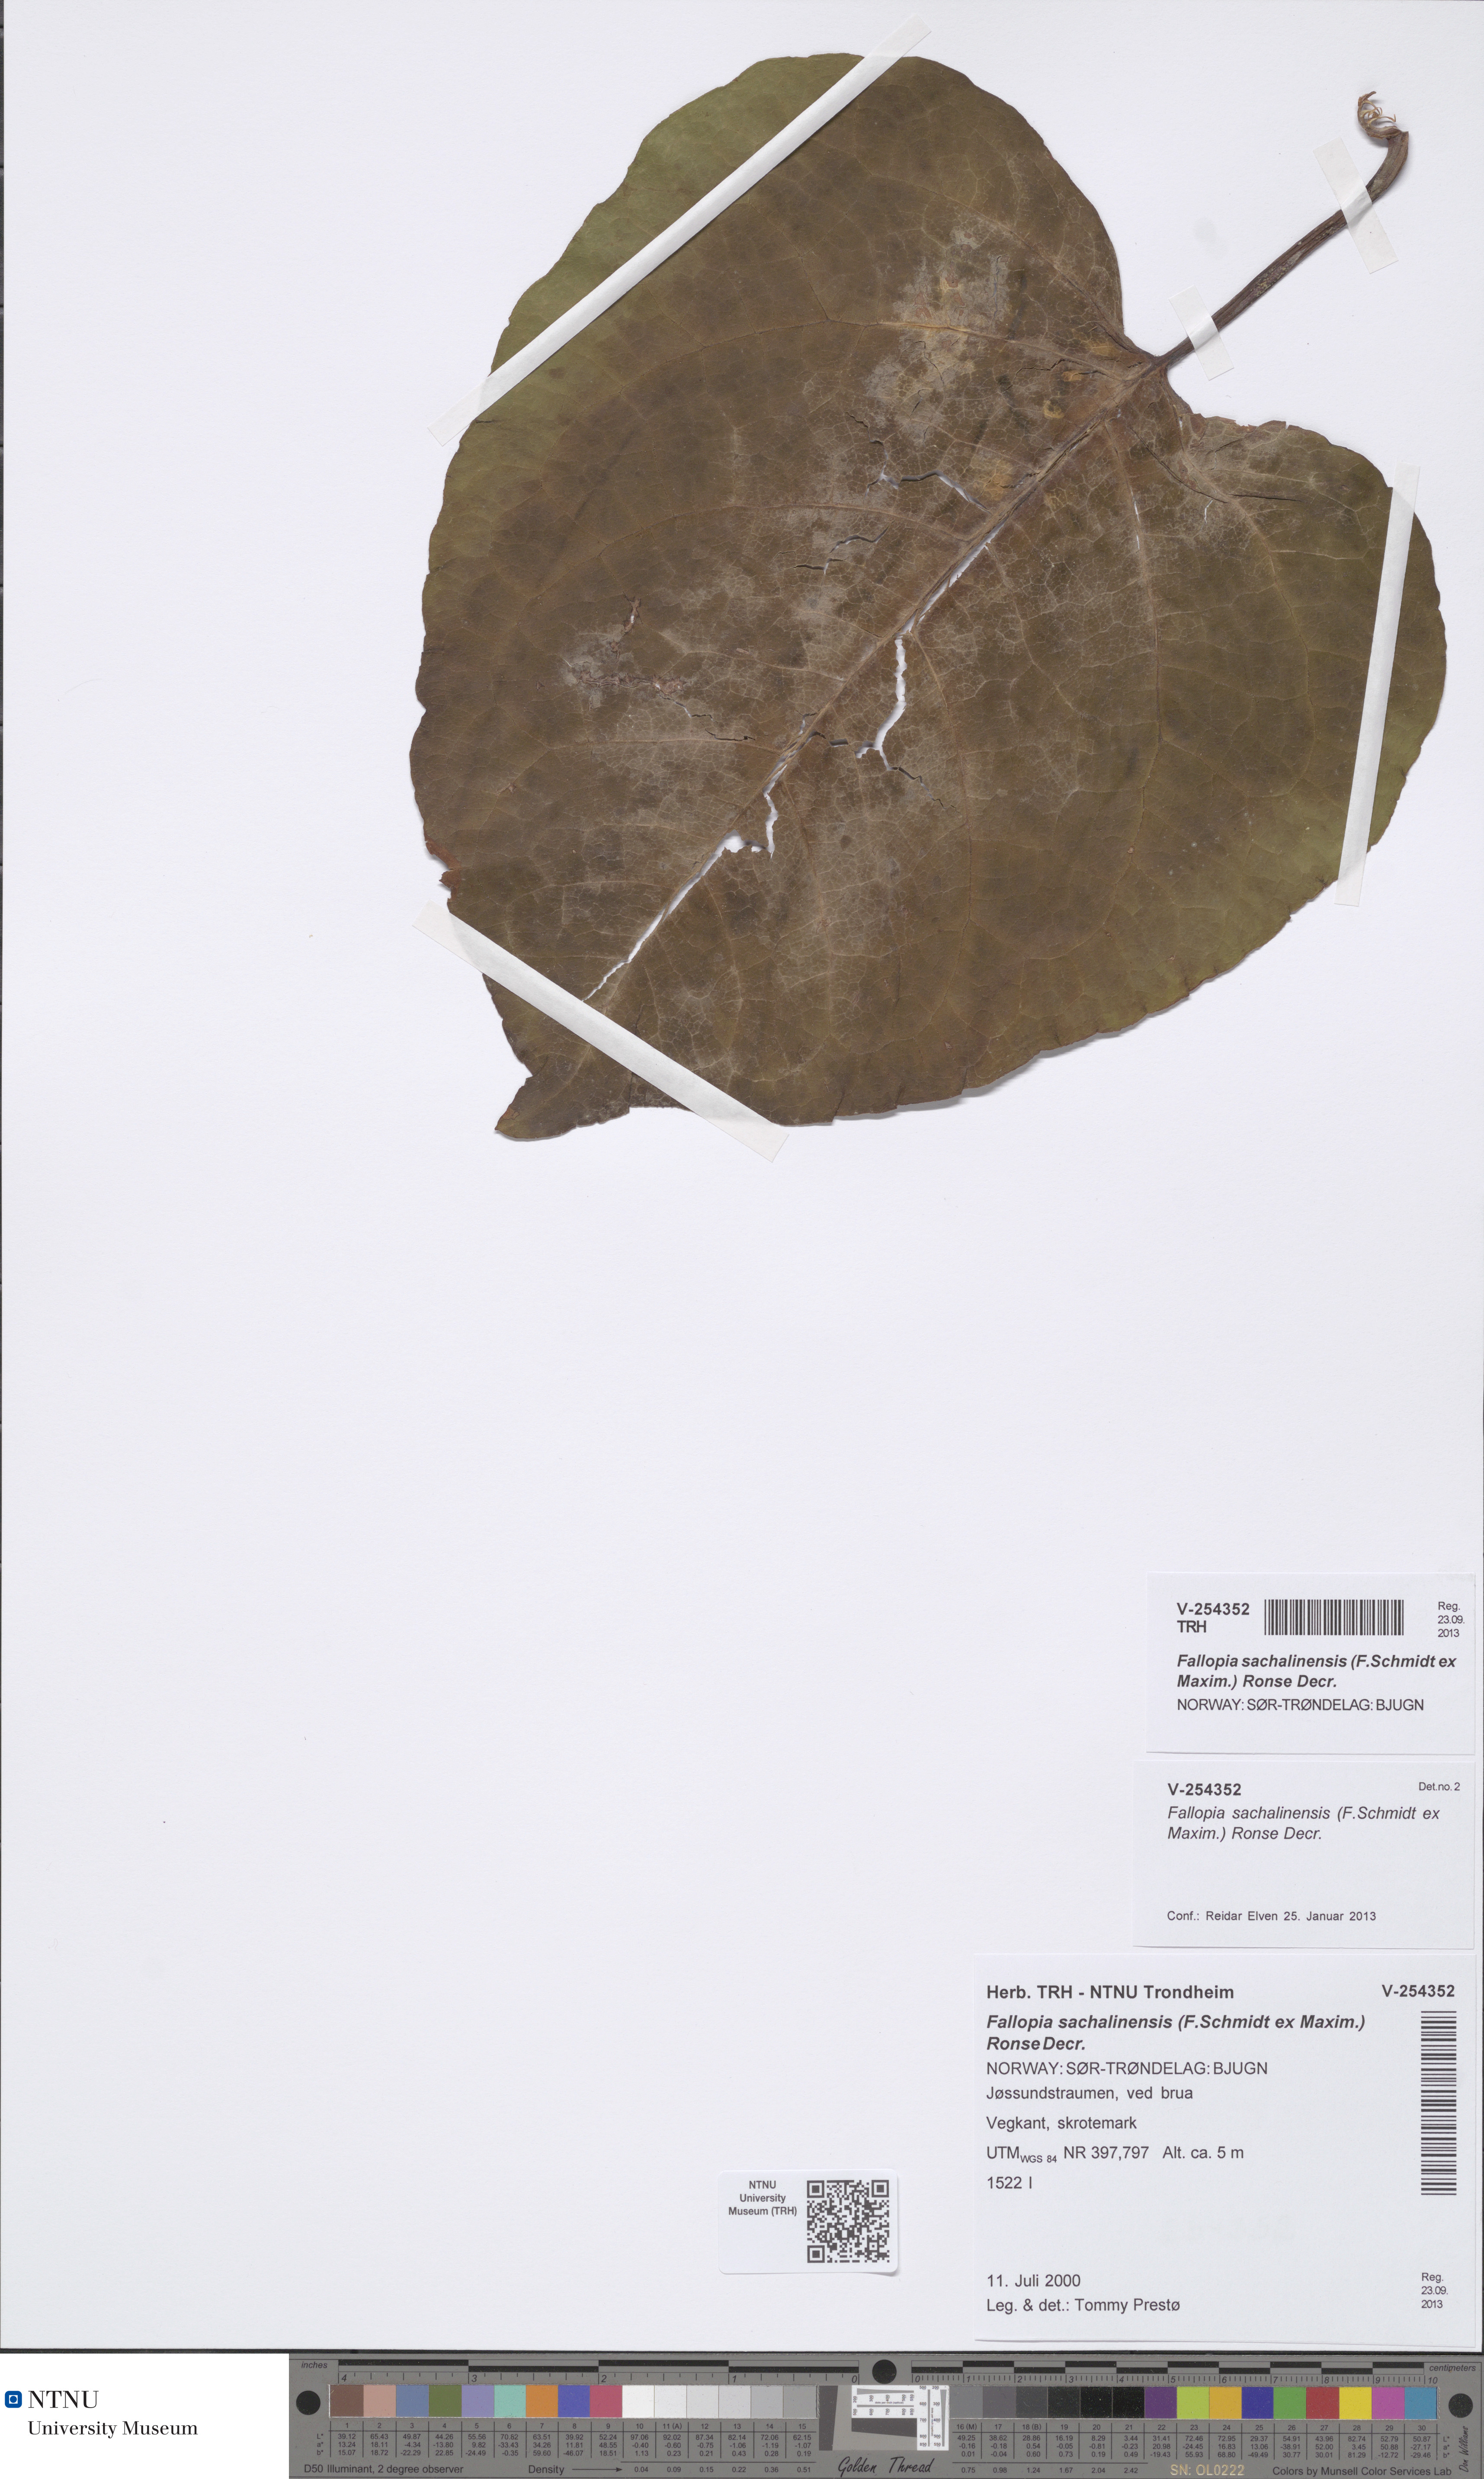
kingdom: Plantae
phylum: Tracheophyta
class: Magnoliopsida
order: Caryophyllales
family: Polygonaceae
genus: Reynoutria
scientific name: Reynoutria sachalinensis
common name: Giant knotweed
